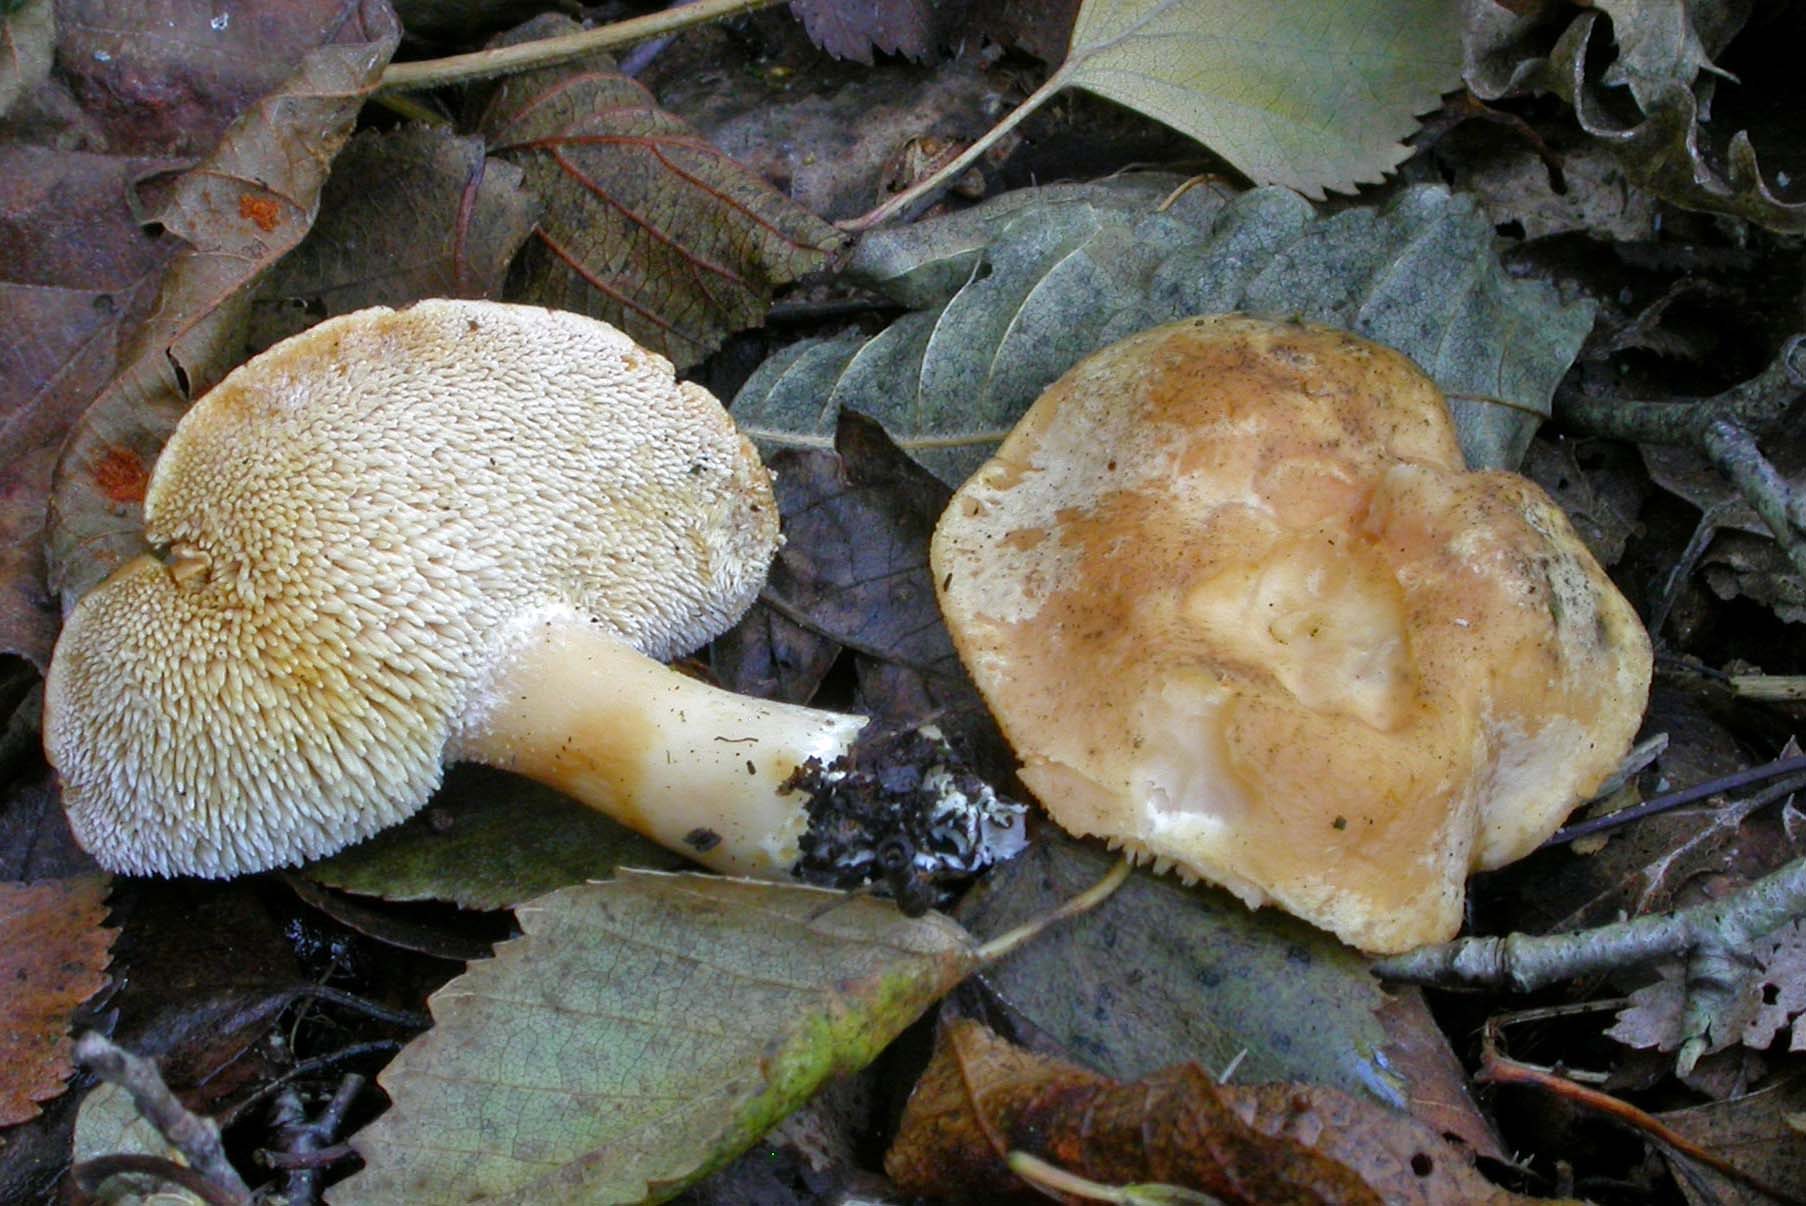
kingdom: Fungi
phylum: Basidiomycota
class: Agaricomycetes
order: Cantharellales
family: Hydnaceae
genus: Hydnum
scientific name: Hydnum rufescens
